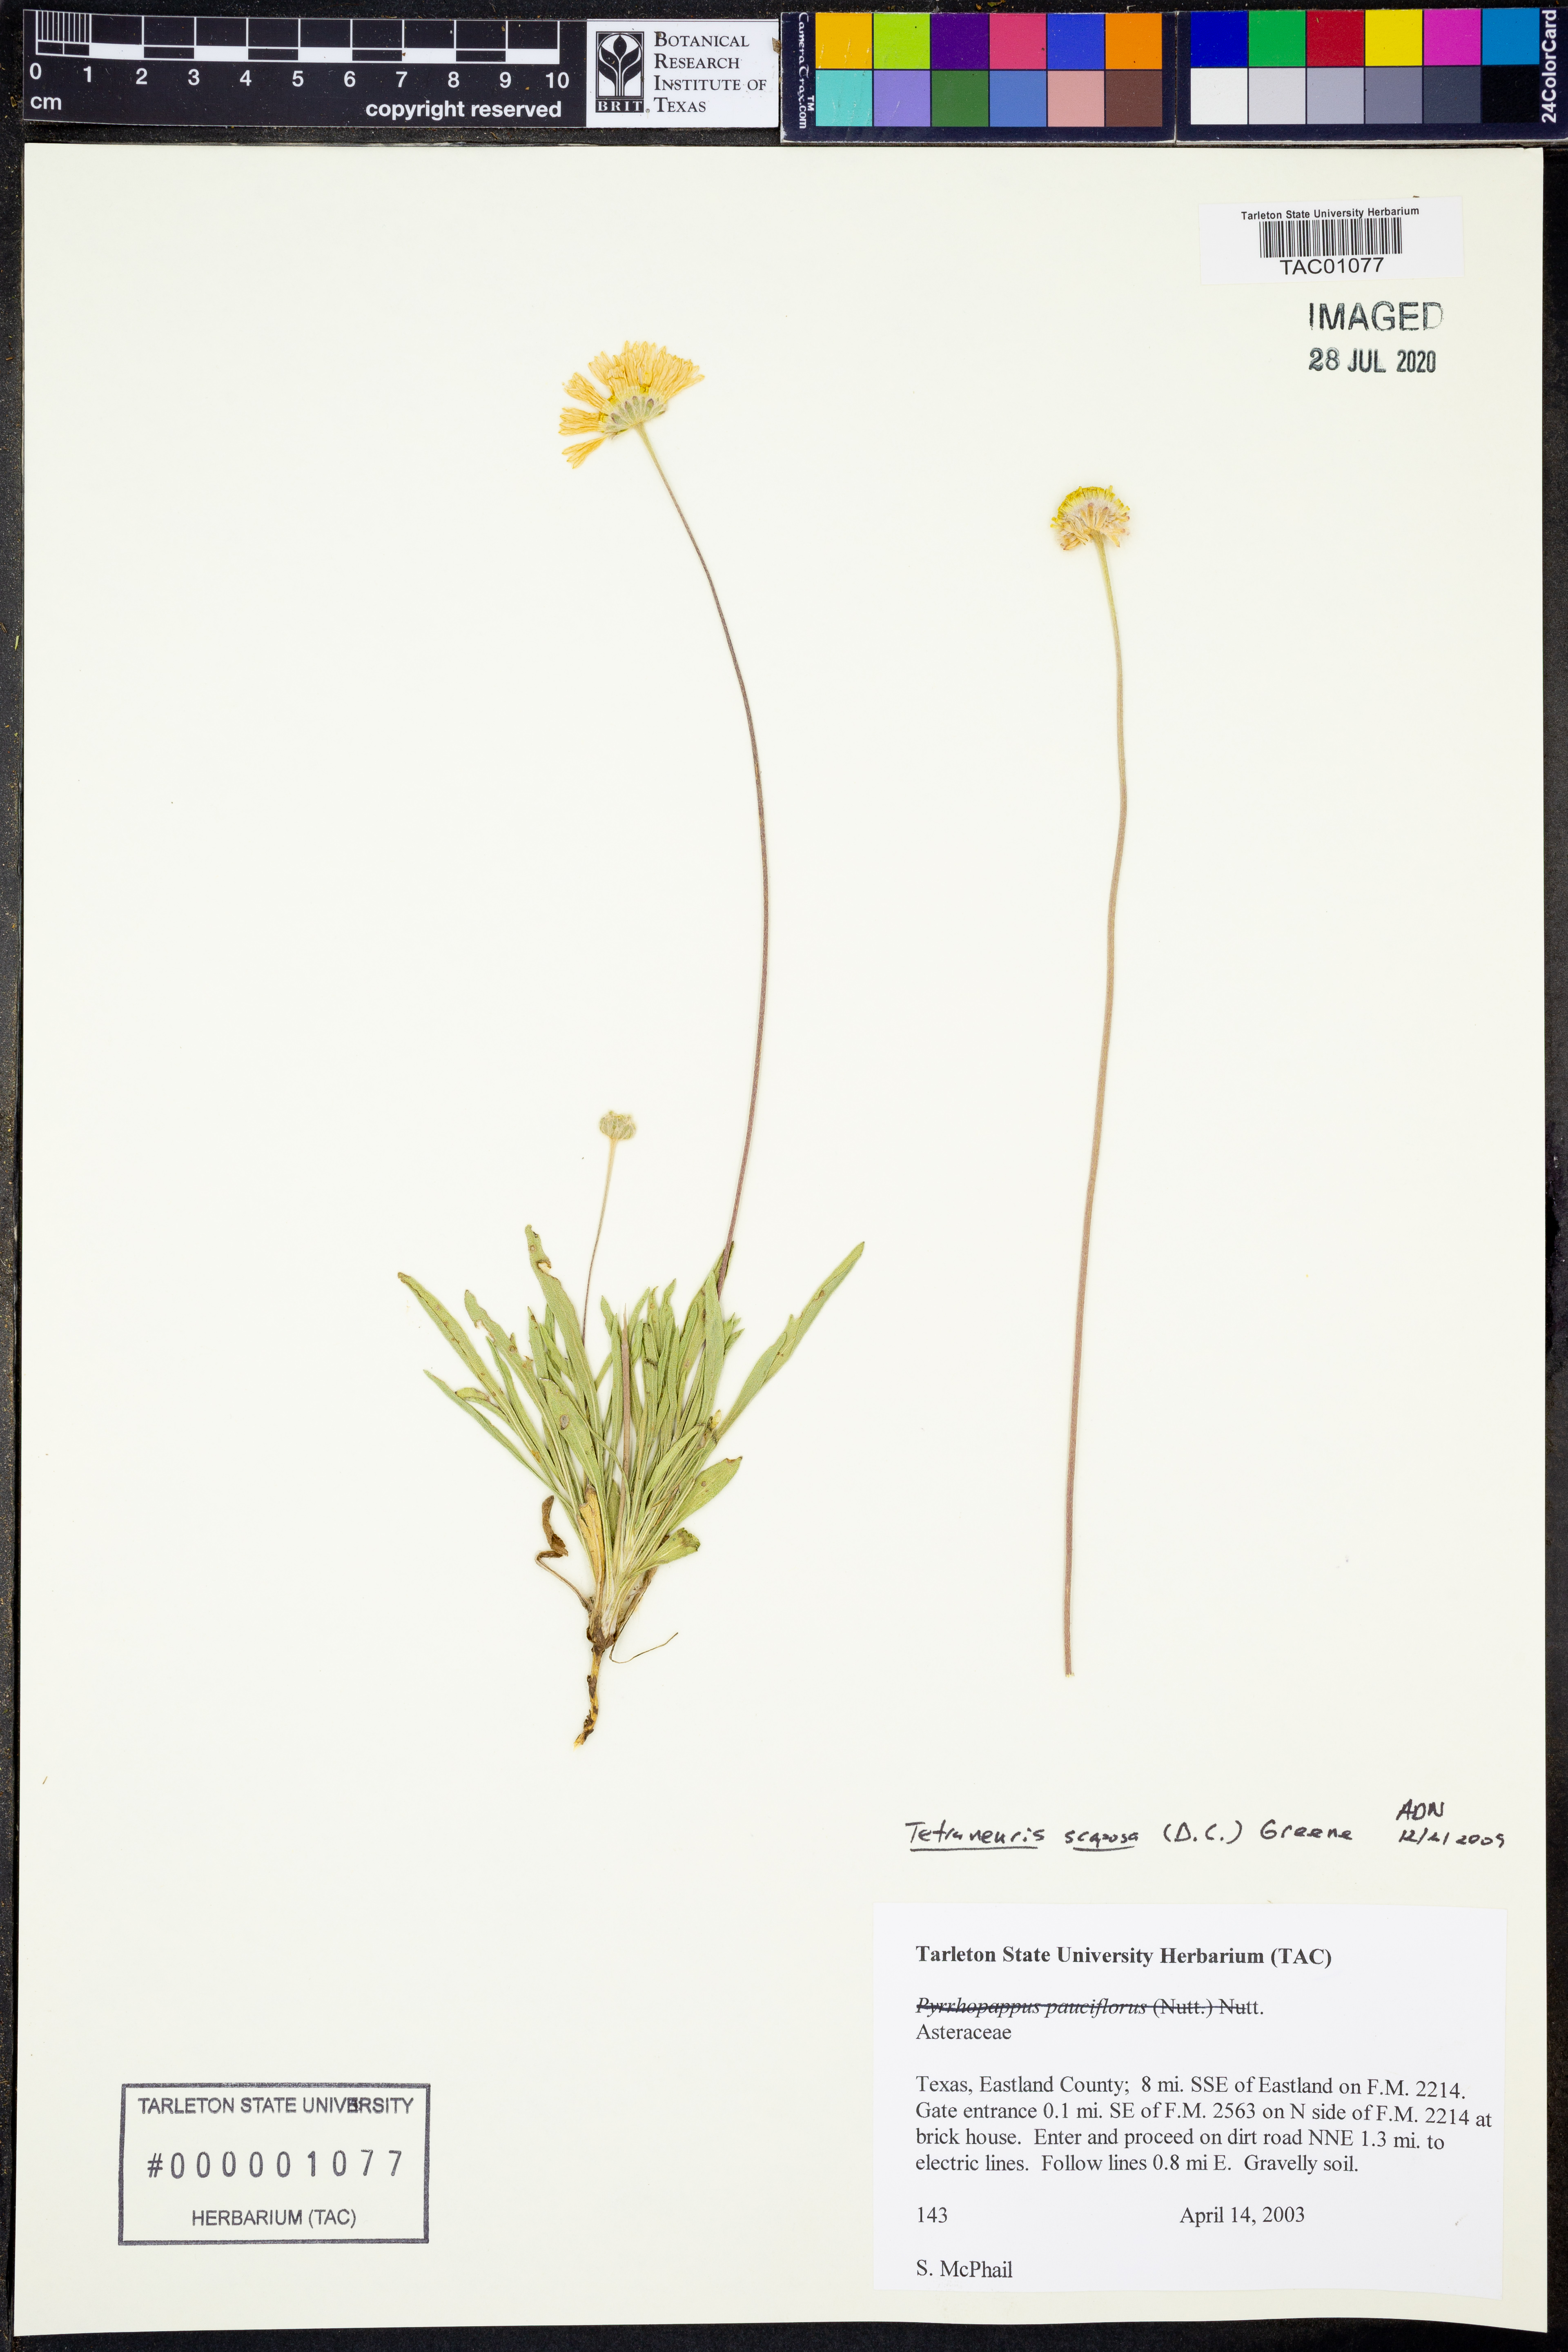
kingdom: Plantae
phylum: Tracheophyta
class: Magnoliopsida
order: Asterales
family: Asteraceae
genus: Tetraneuris
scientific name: Tetraneuris scaposa
